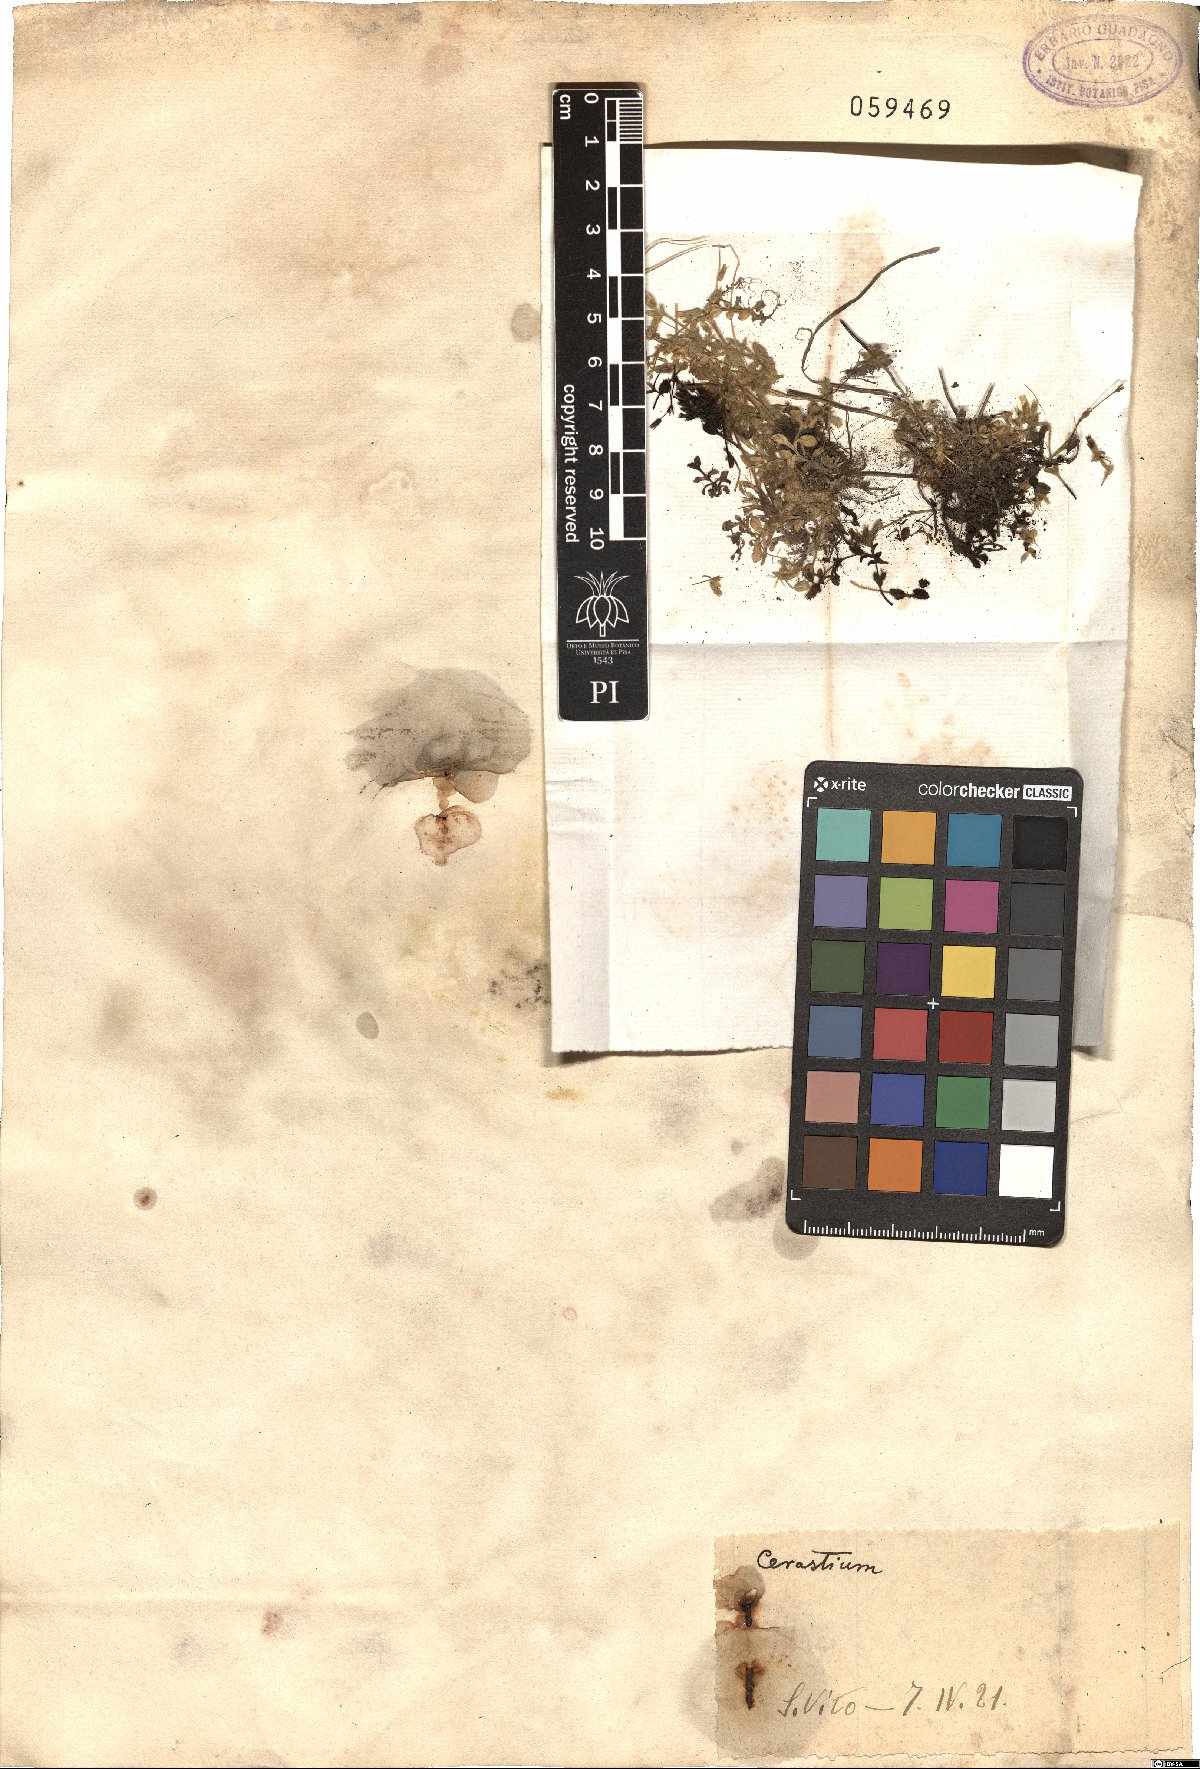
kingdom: Plantae
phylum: Tracheophyta
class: Magnoliopsida
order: Caryophyllales
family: Caryophyllaceae
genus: Cerastium
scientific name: Cerastium
